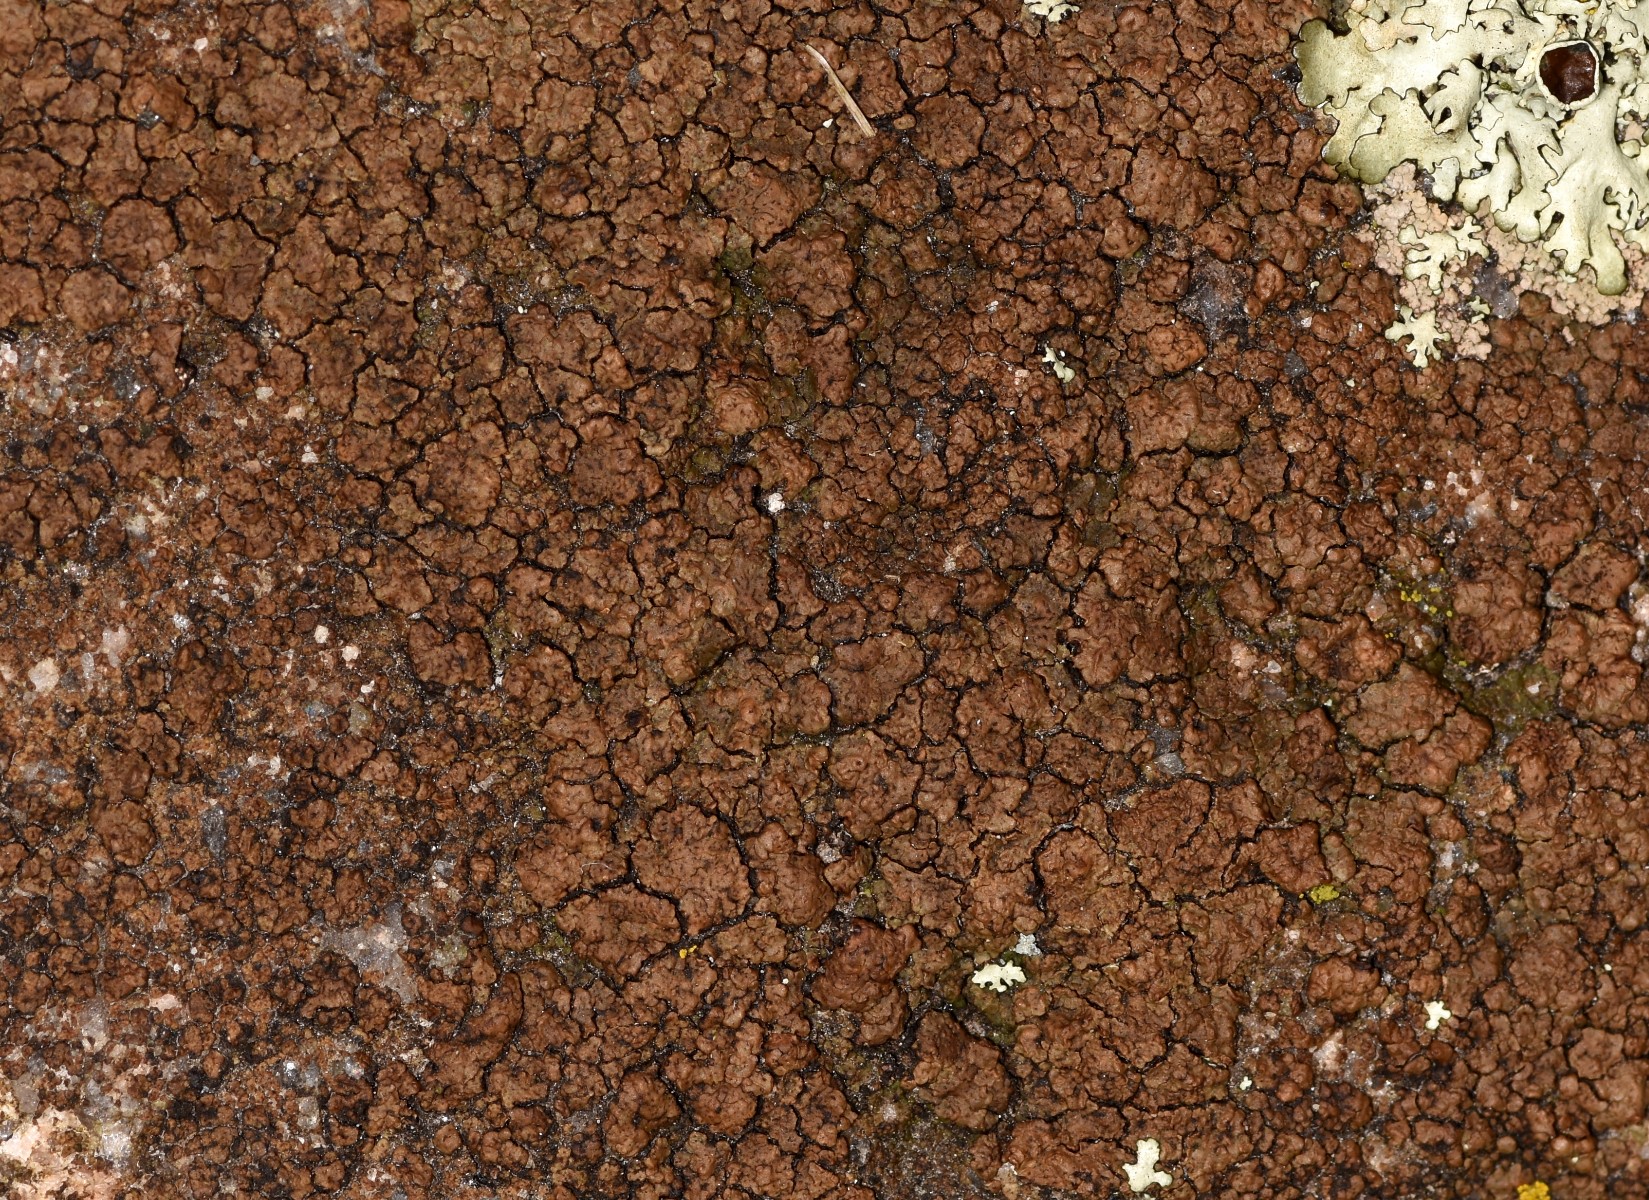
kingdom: Fungi
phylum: Ascomycota
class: Lecanoromycetes
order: Acarosporales
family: Acarosporaceae
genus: Acarospora
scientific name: Acarospora fuscata
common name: brun småsporelav
